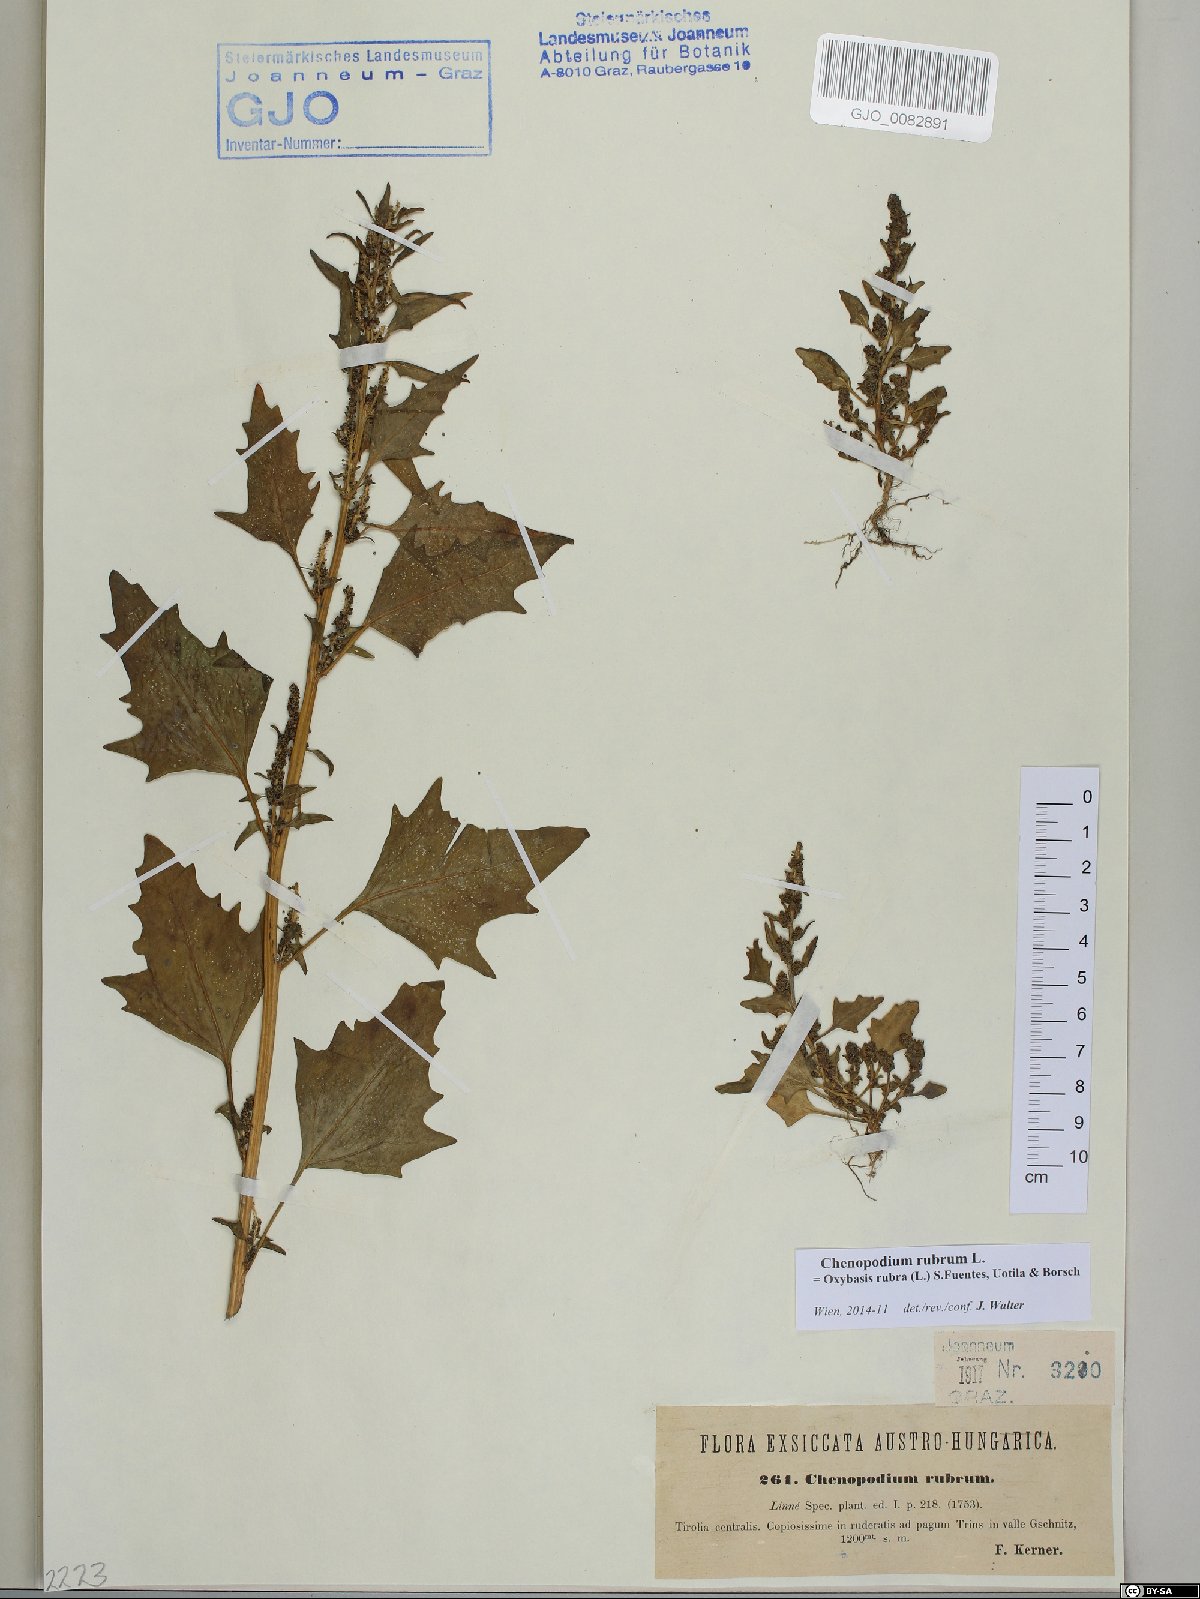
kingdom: Plantae
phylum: Tracheophyta
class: Magnoliopsida
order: Caryophyllales
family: Amaranthaceae
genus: Oxybasis
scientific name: Oxybasis rubra
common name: Red goosefoot
